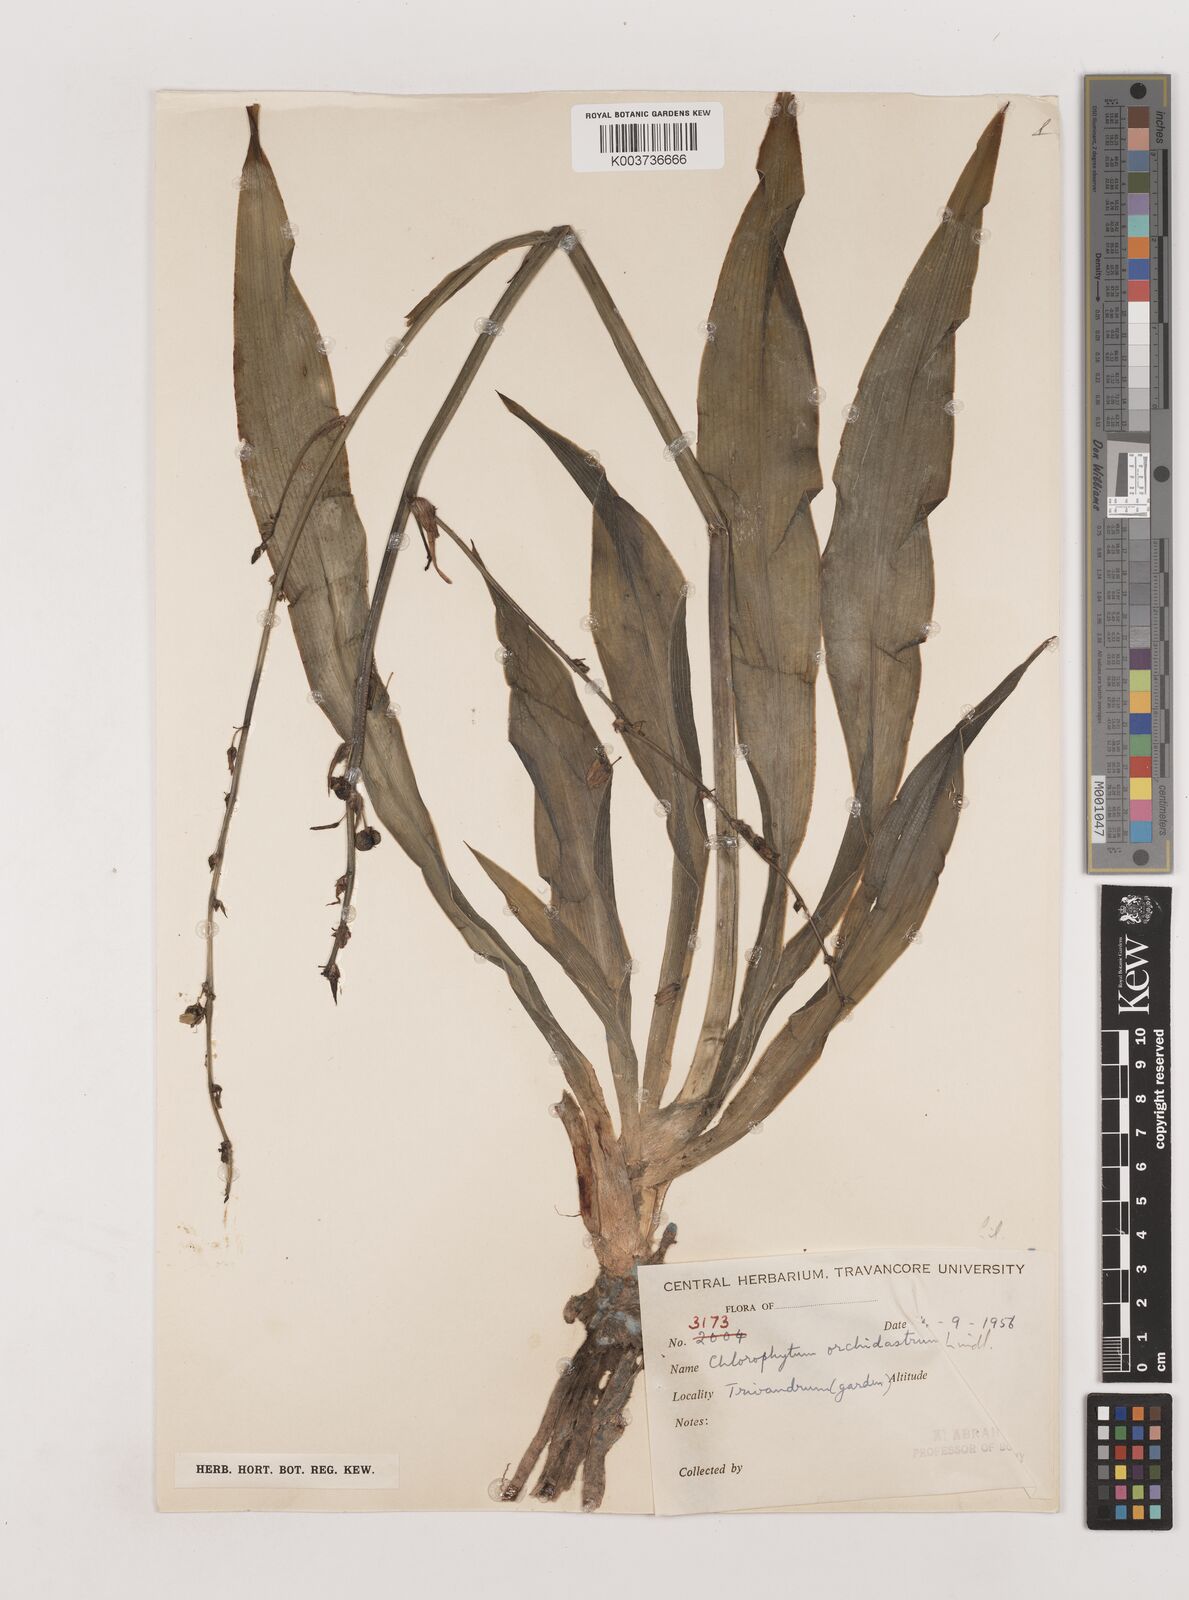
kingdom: Plantae
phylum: Tracheophyta
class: Liliopsida
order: Asparagales
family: Asparagaceae
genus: Chlorophytum
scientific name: Chlorophytum comosum
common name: Spider plant
